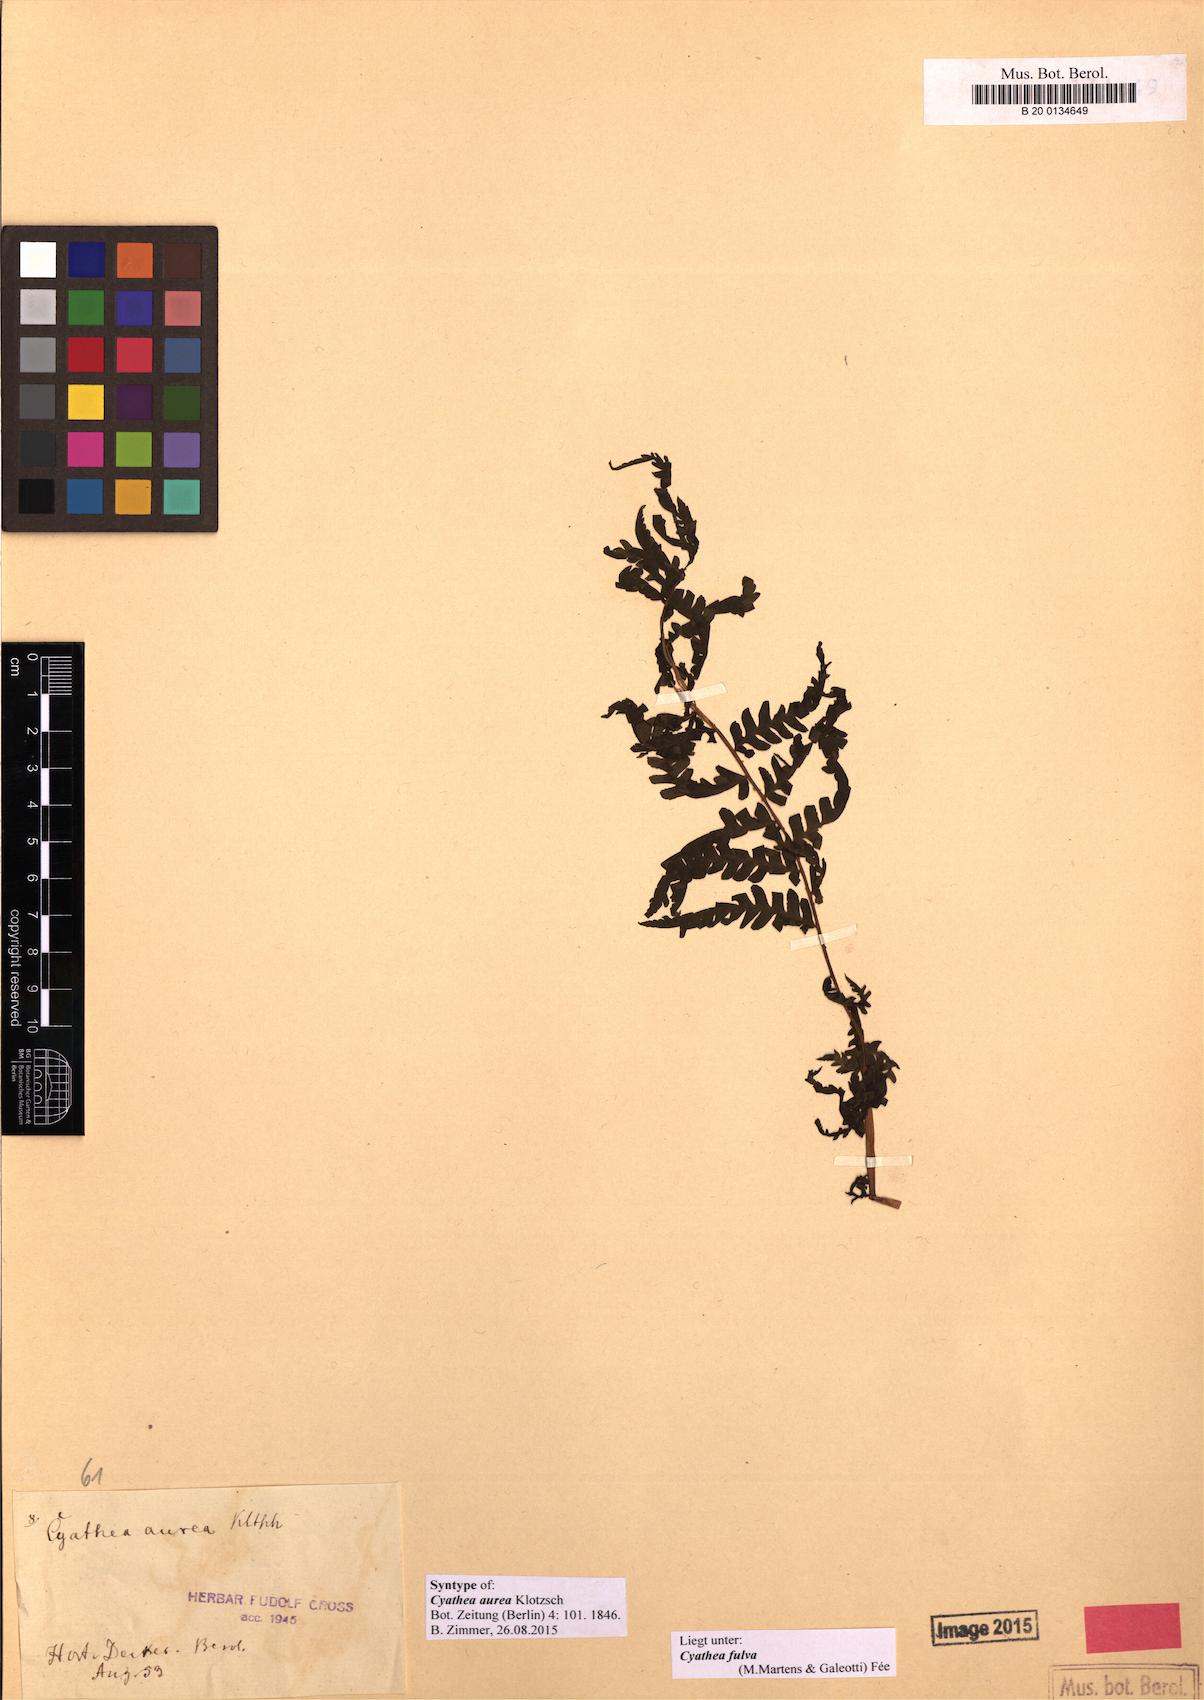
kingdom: Plantae
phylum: Tracheophyta
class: Polypodiopsida
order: Cyatheales
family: Cyatheaceae
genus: Cyathea
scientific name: Cyathea fulva
